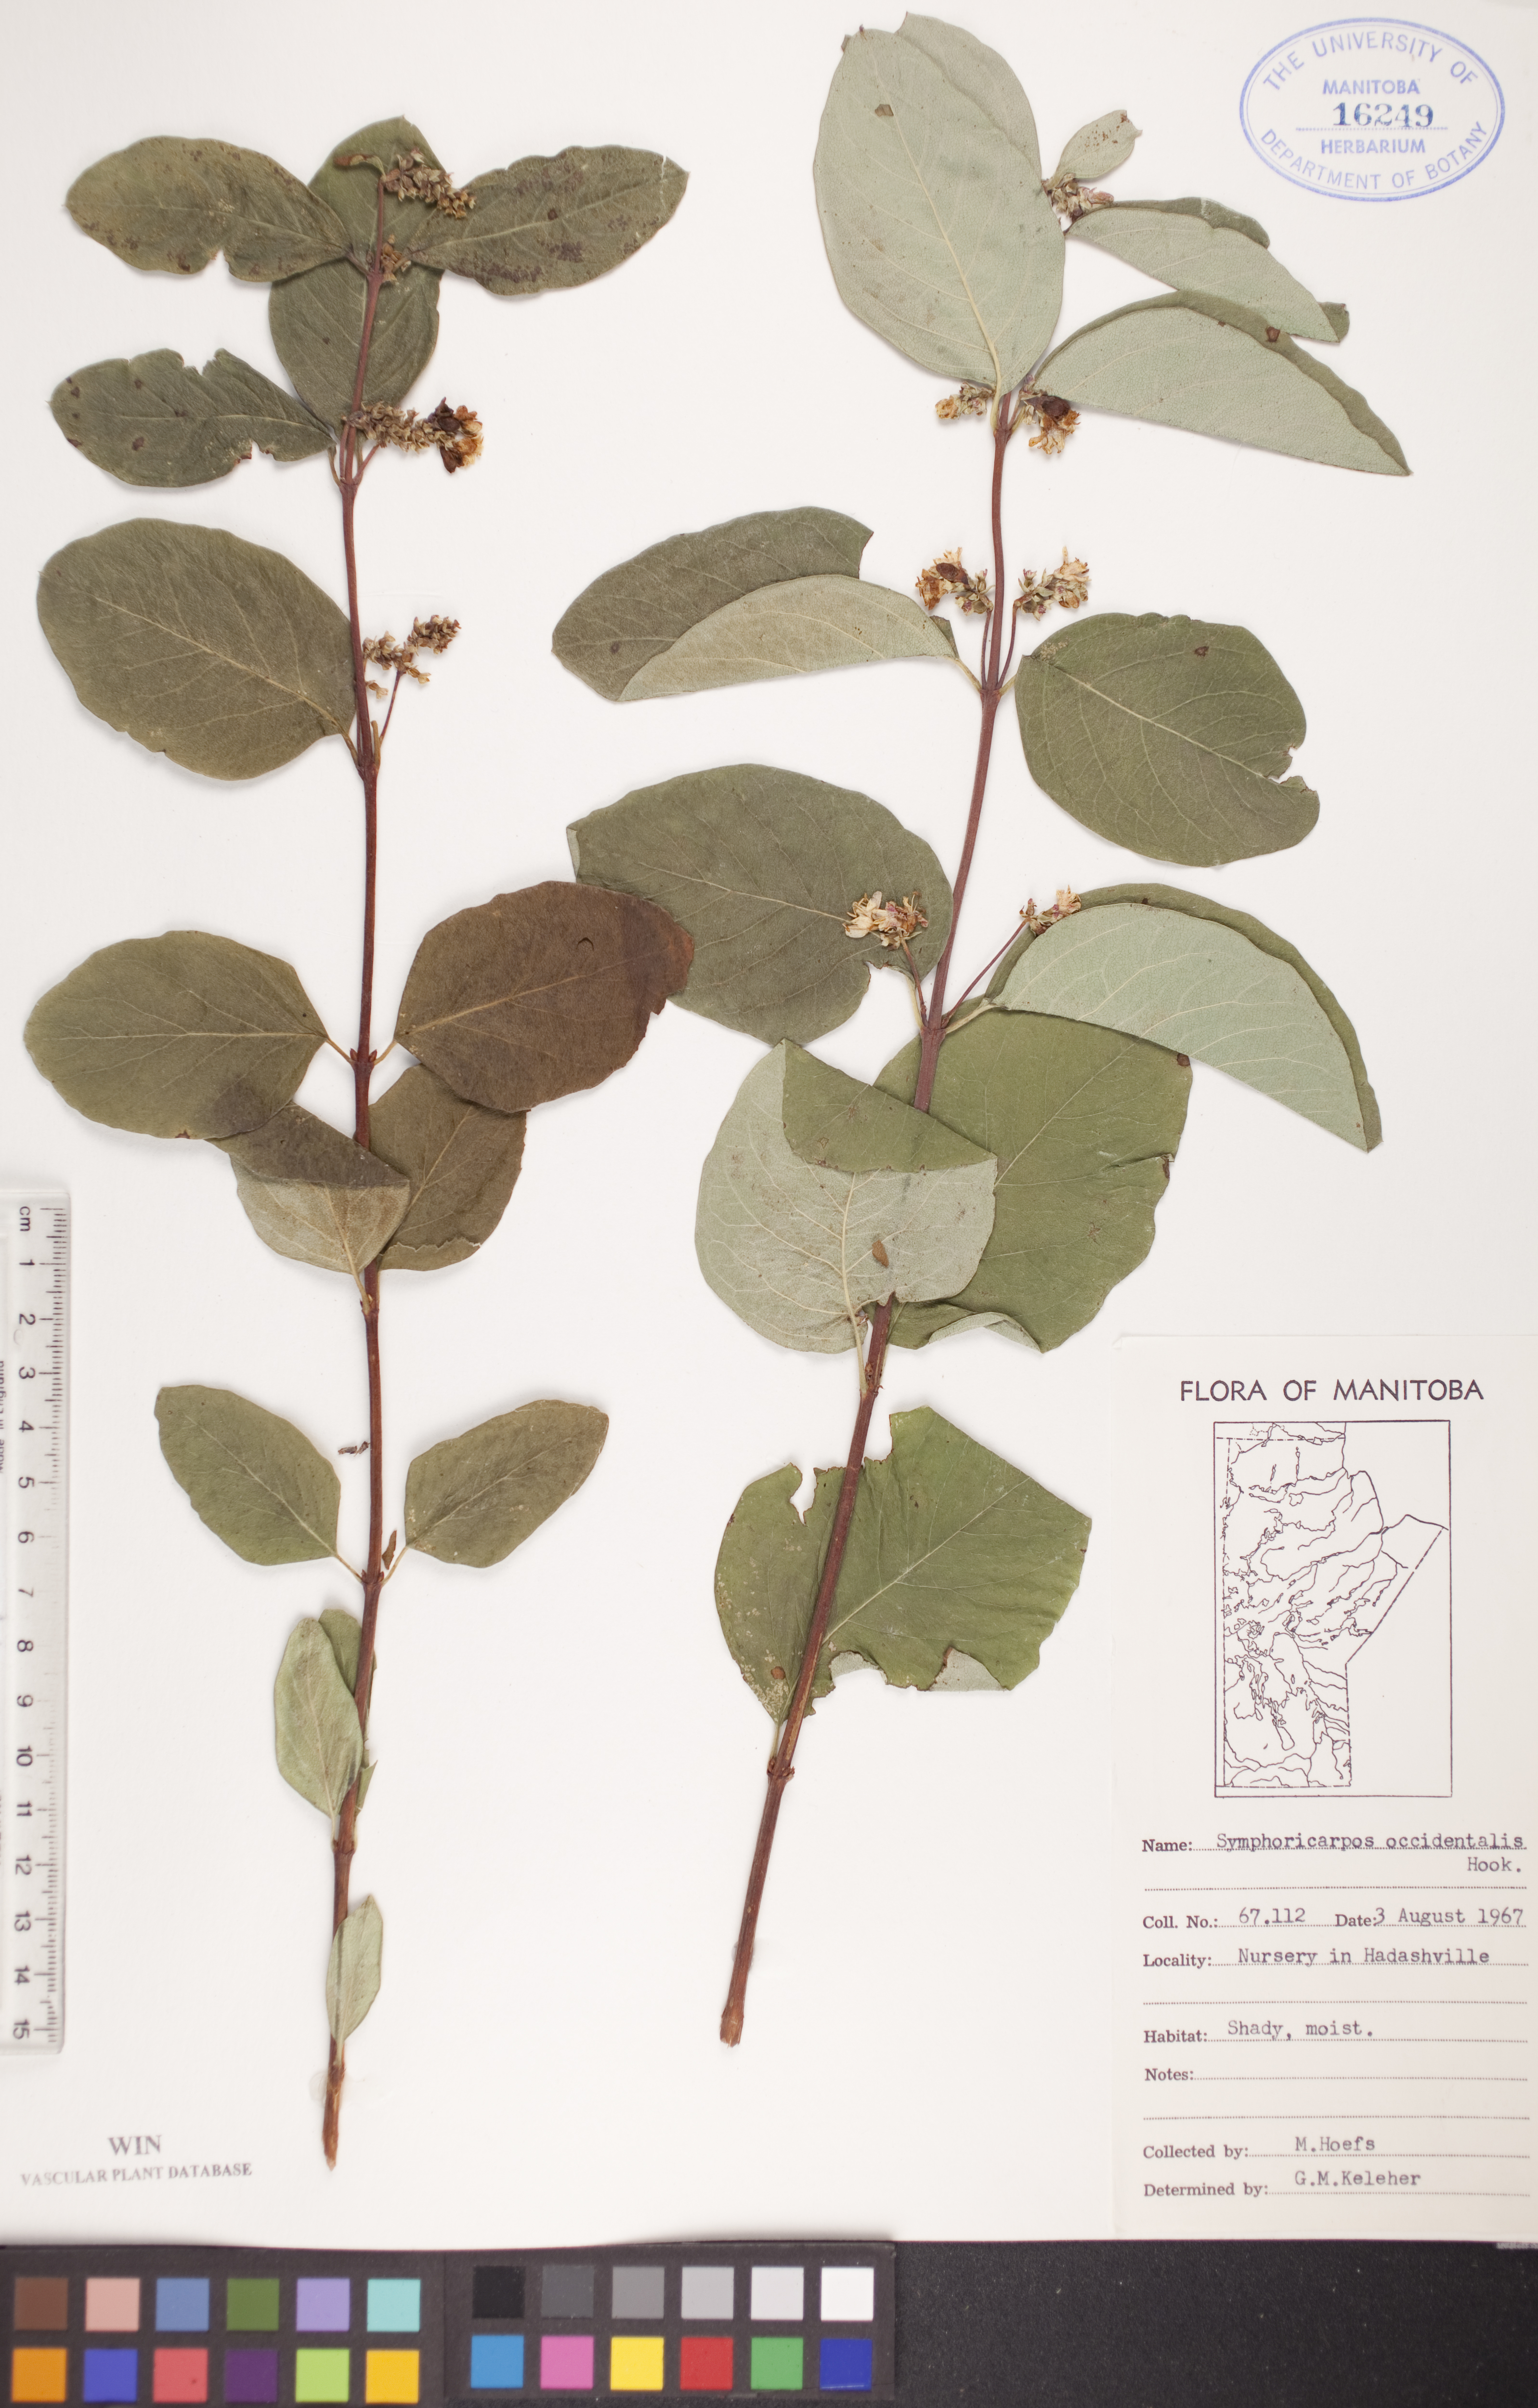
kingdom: Plantae
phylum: Tracheophyta
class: Magnoliopsida
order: Dipsacales
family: Caprifoliaceae
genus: Symphoricarpos
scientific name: Symphoricarpos occidentalis
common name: Wolfberry
